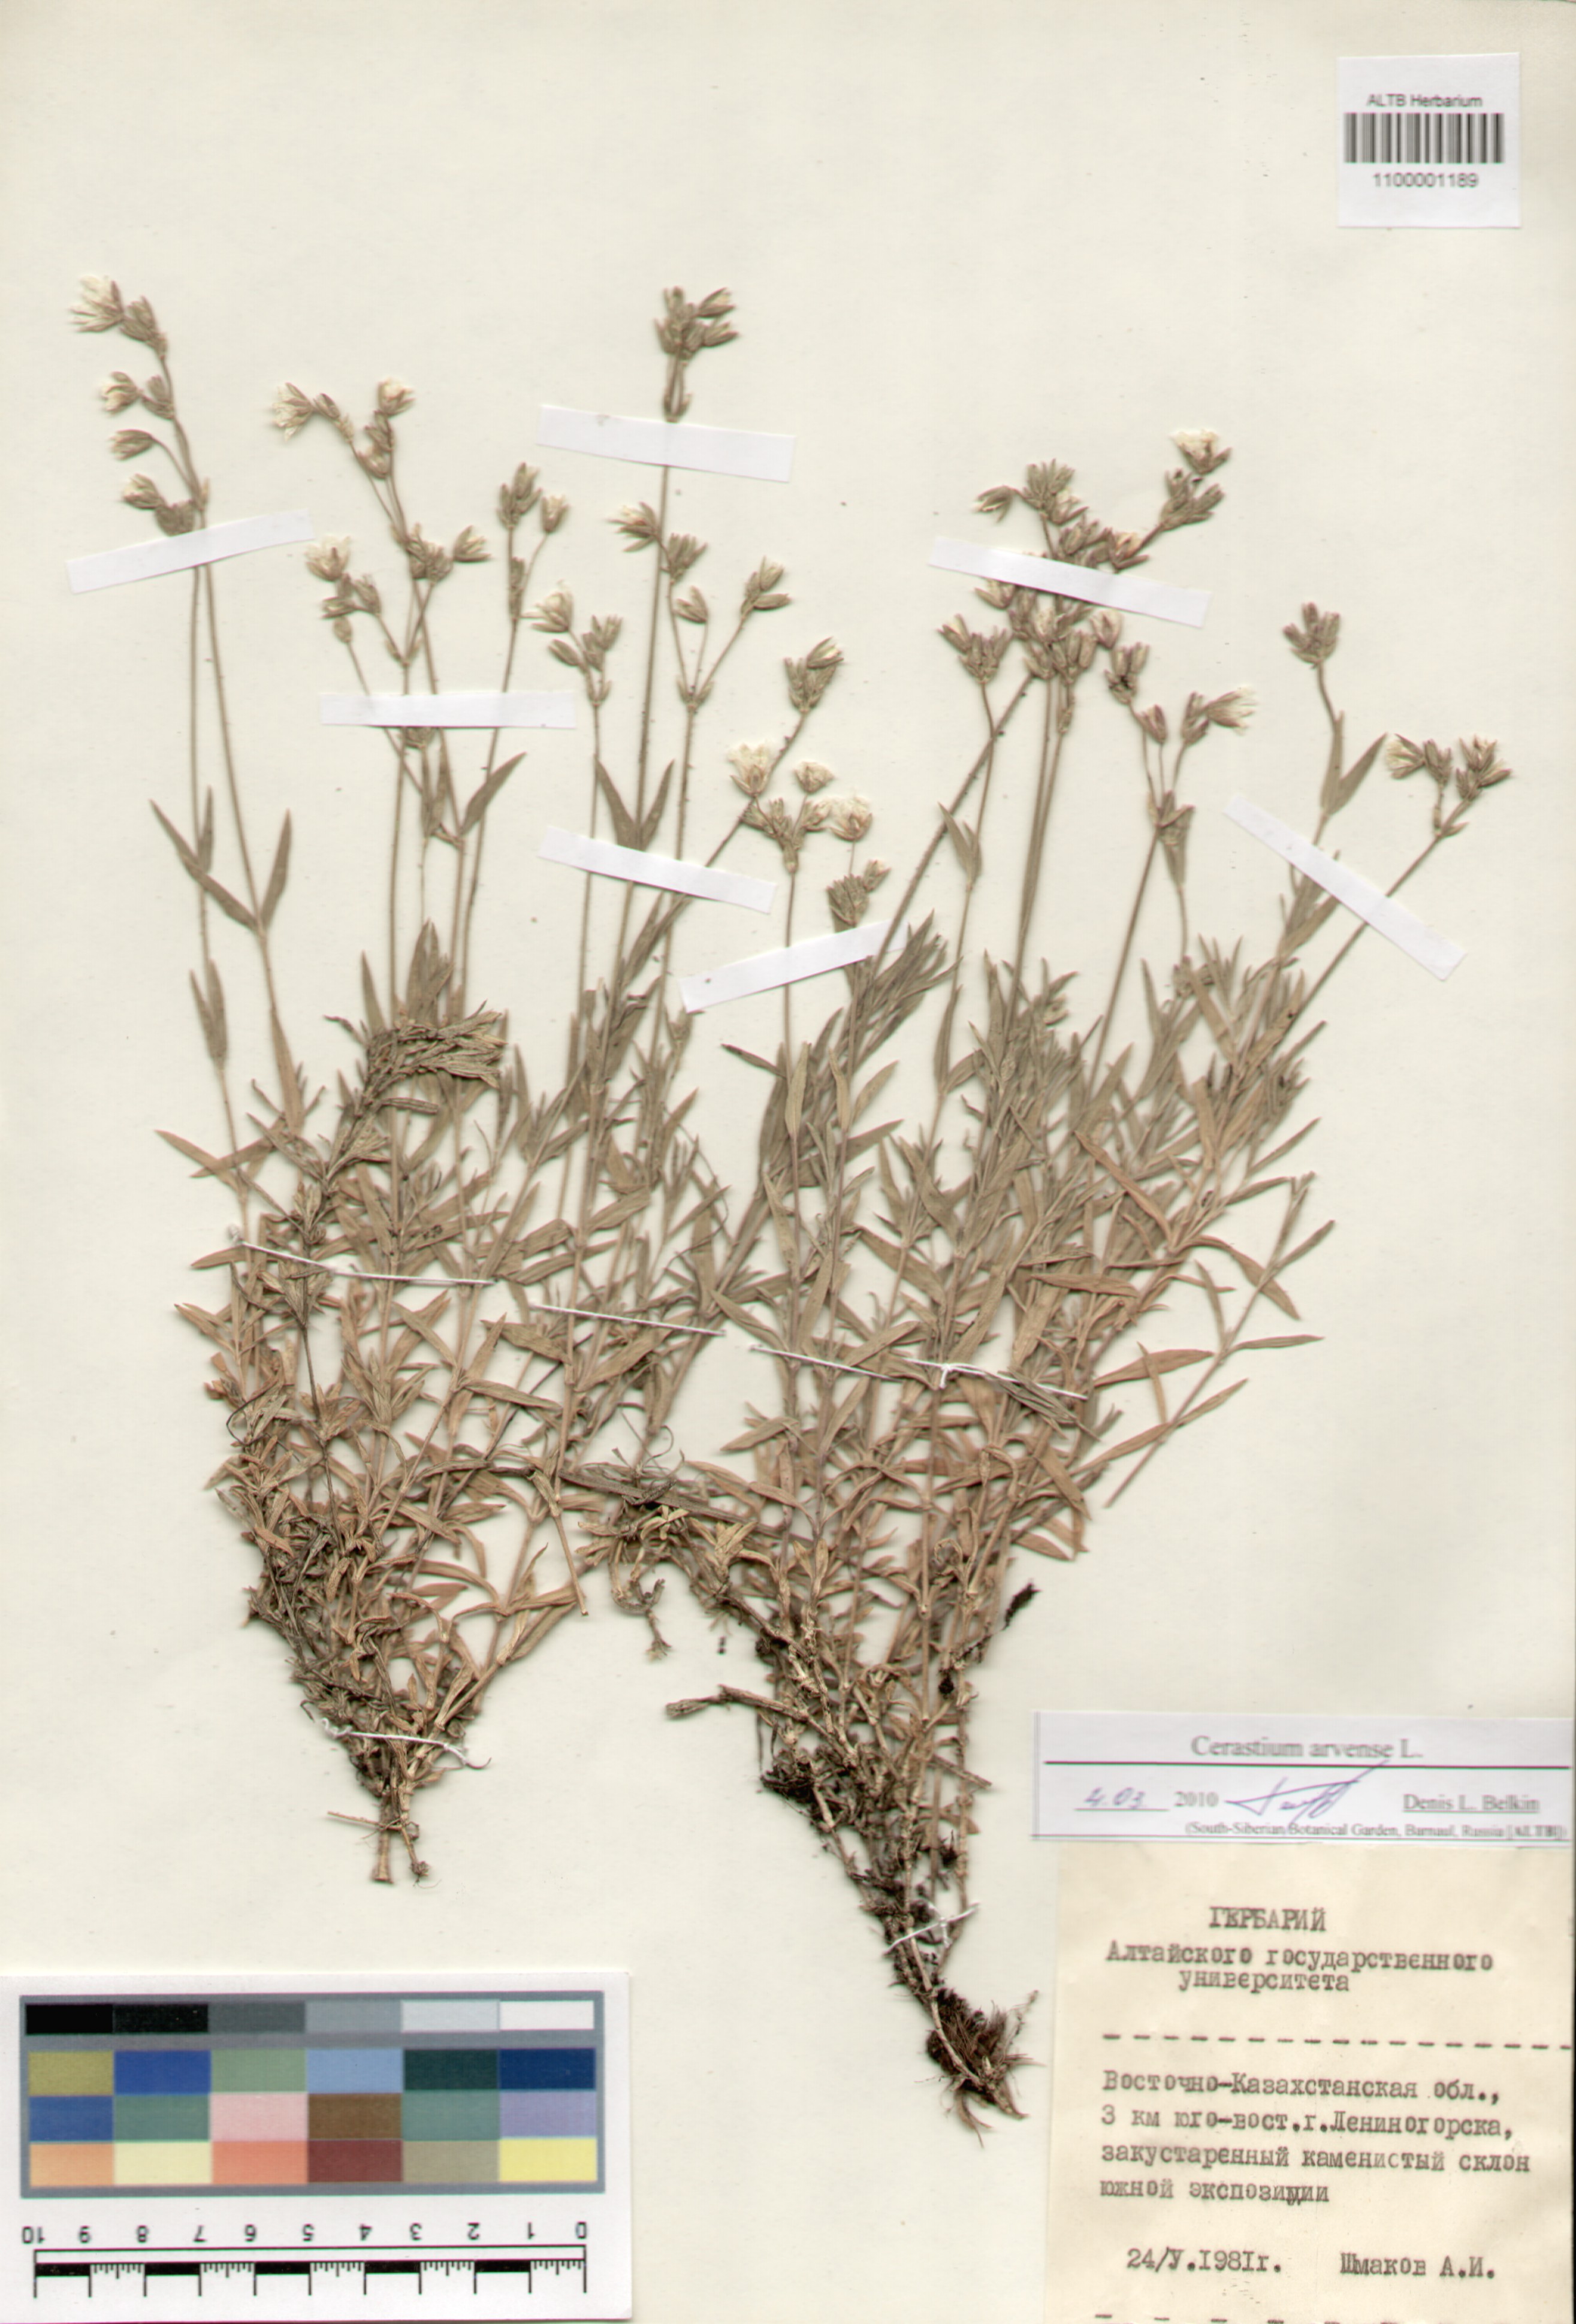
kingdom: Plantae
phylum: Tracheophyta
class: Magnoliopsida
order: Caryophyllales
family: Caryophyllaceae
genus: Cerastium
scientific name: Cerastium arvense
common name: Field mouse-ear
